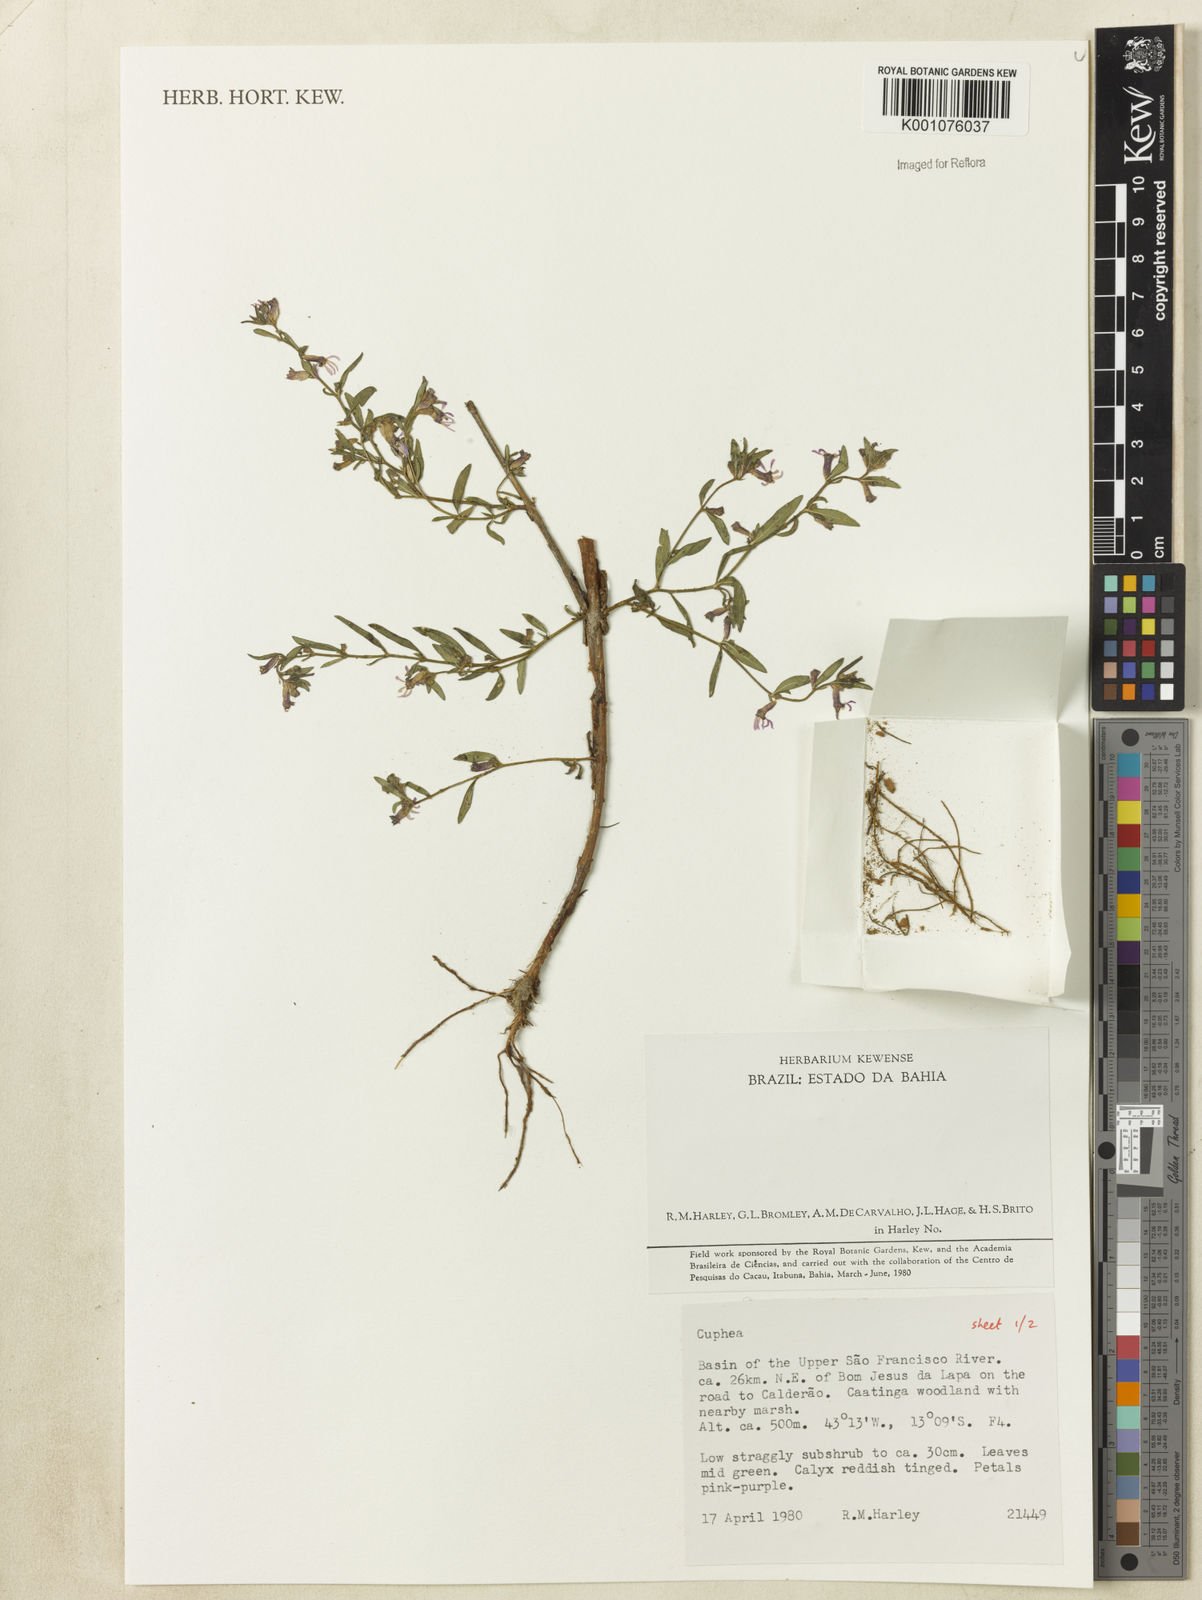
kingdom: Plantae
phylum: Tracheophyta
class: Magnoliopsida
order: Myrtales
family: Lythraceae
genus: Cuphea
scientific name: Cuphea
